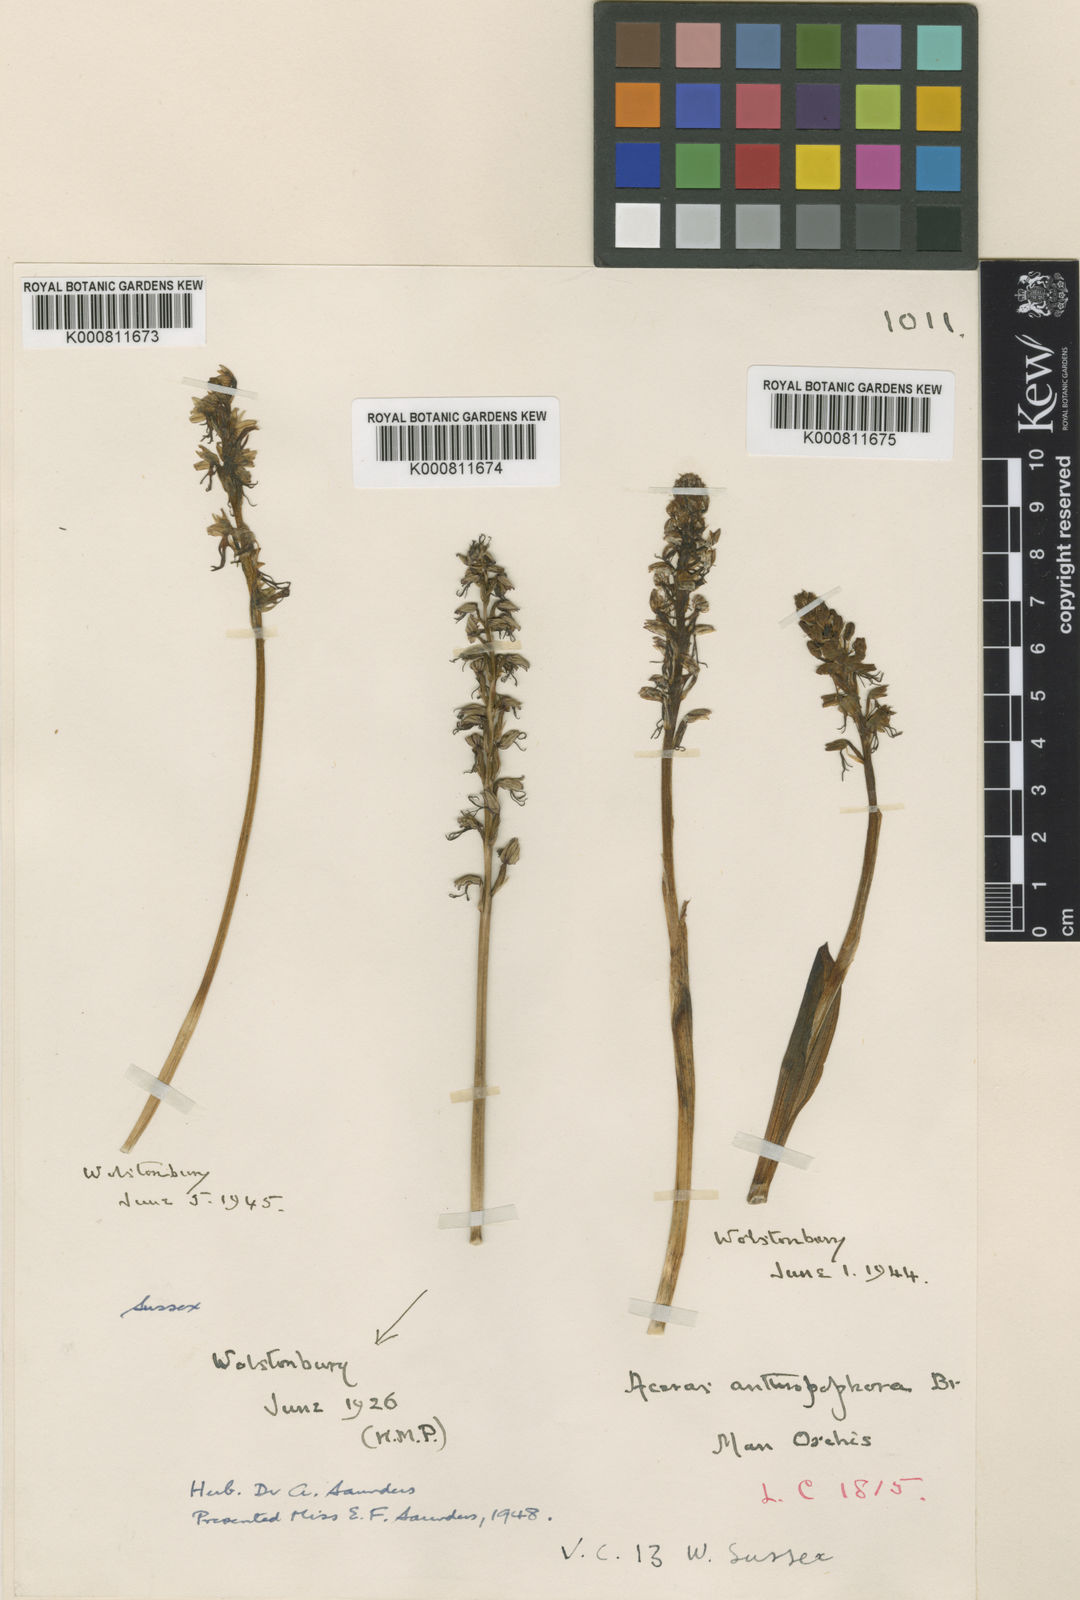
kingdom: Plantae
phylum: Tracheophyta
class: Liliopsida
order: Asparagales
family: Orchidaceae
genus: Orchis
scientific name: Orchis
